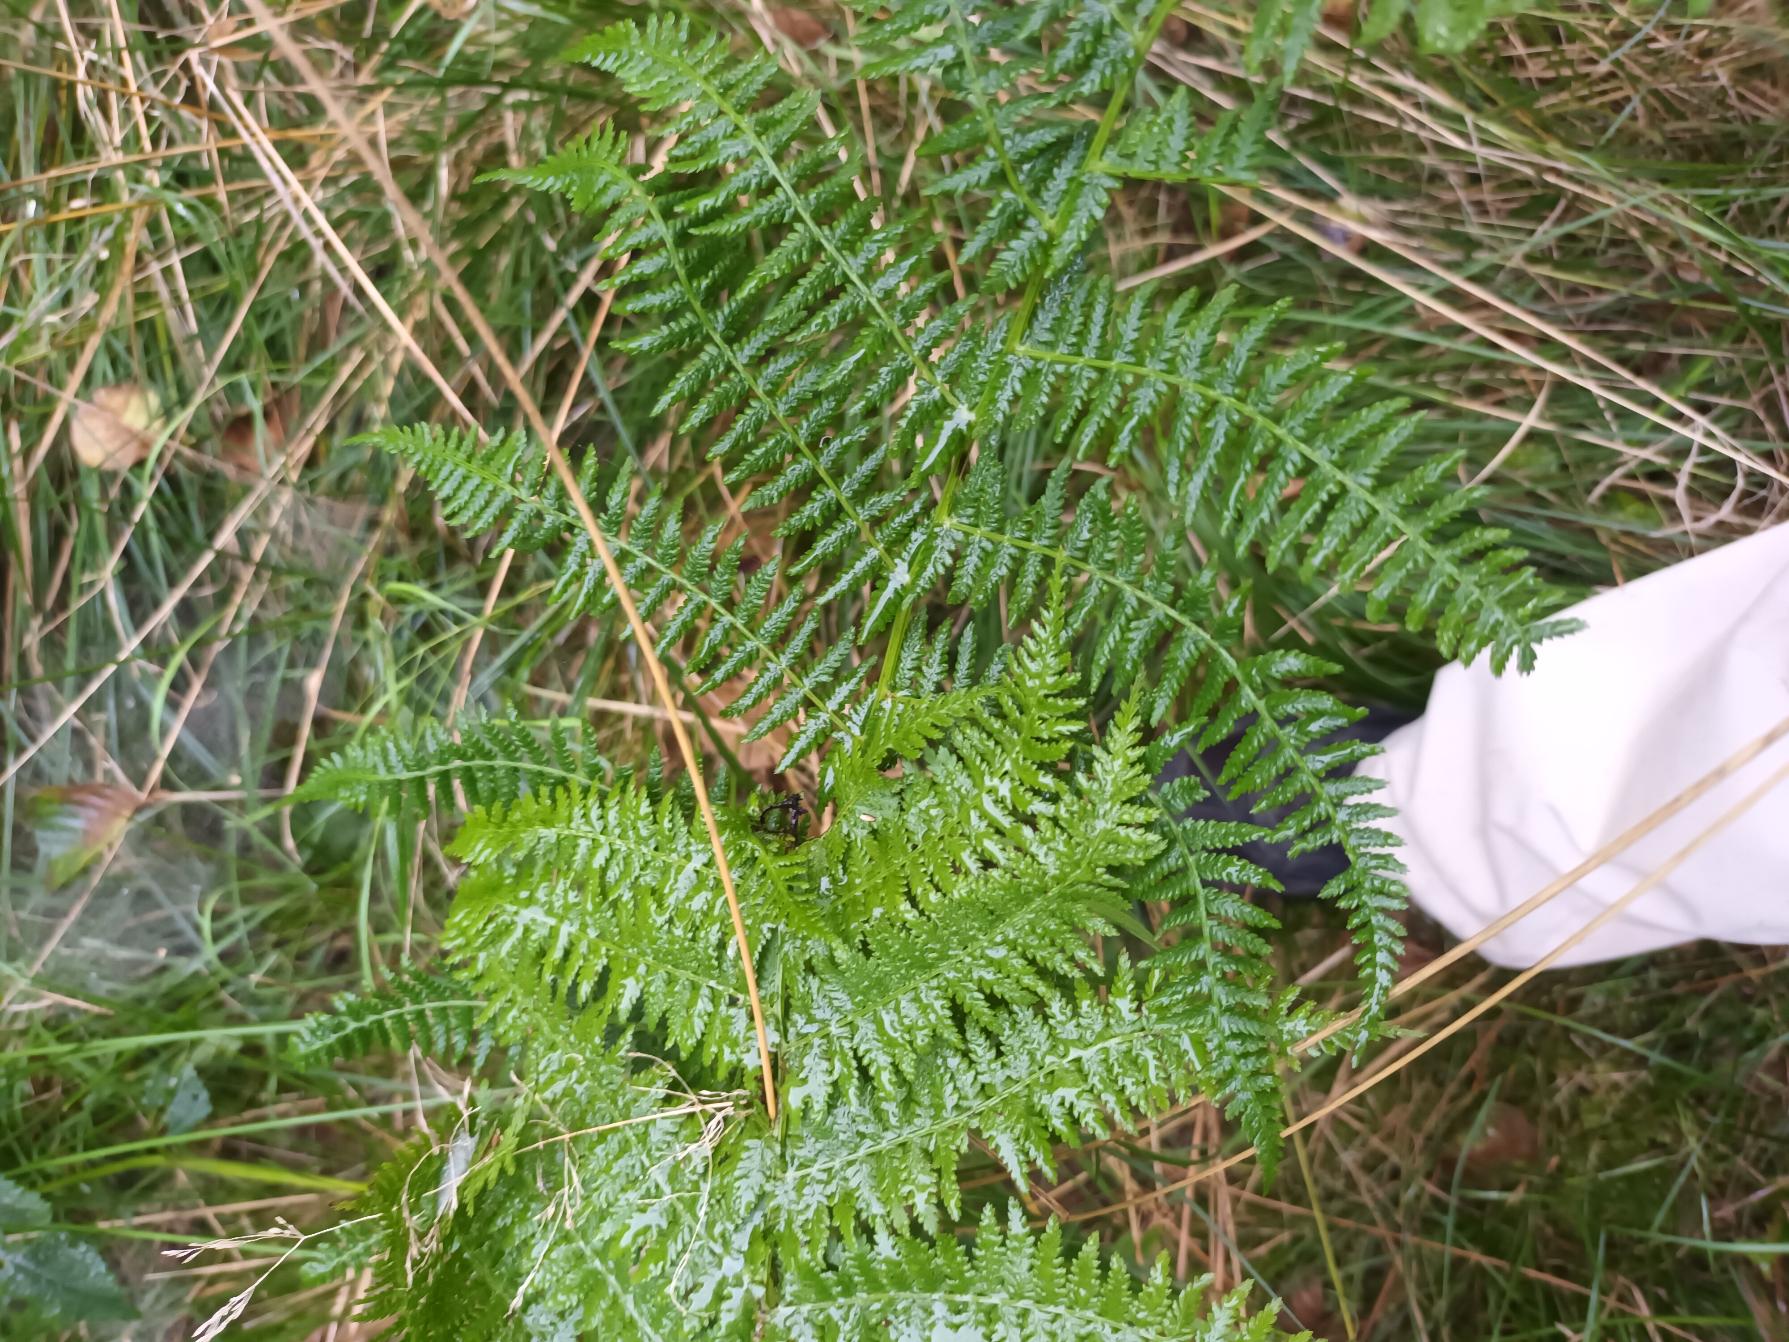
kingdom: Plantae
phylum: Tracheophyta
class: Polypodiopsida
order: Polypodiales
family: Athyriaceae
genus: Athyrium
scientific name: Athyrium filix-femina
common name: Fjerbregne
